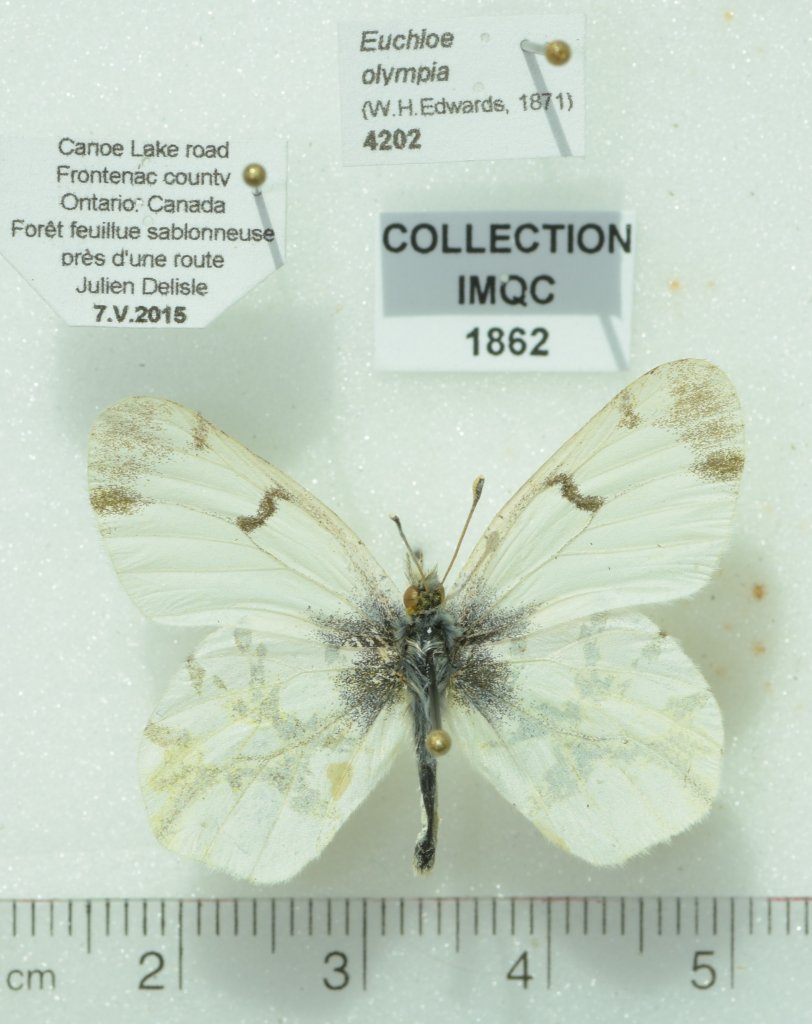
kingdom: Animalia
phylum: Arthropoda
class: Insecta
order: Lepidoptera
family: Pieridae
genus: Euchloe
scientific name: Euchloe olympia
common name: Olympia Marble
